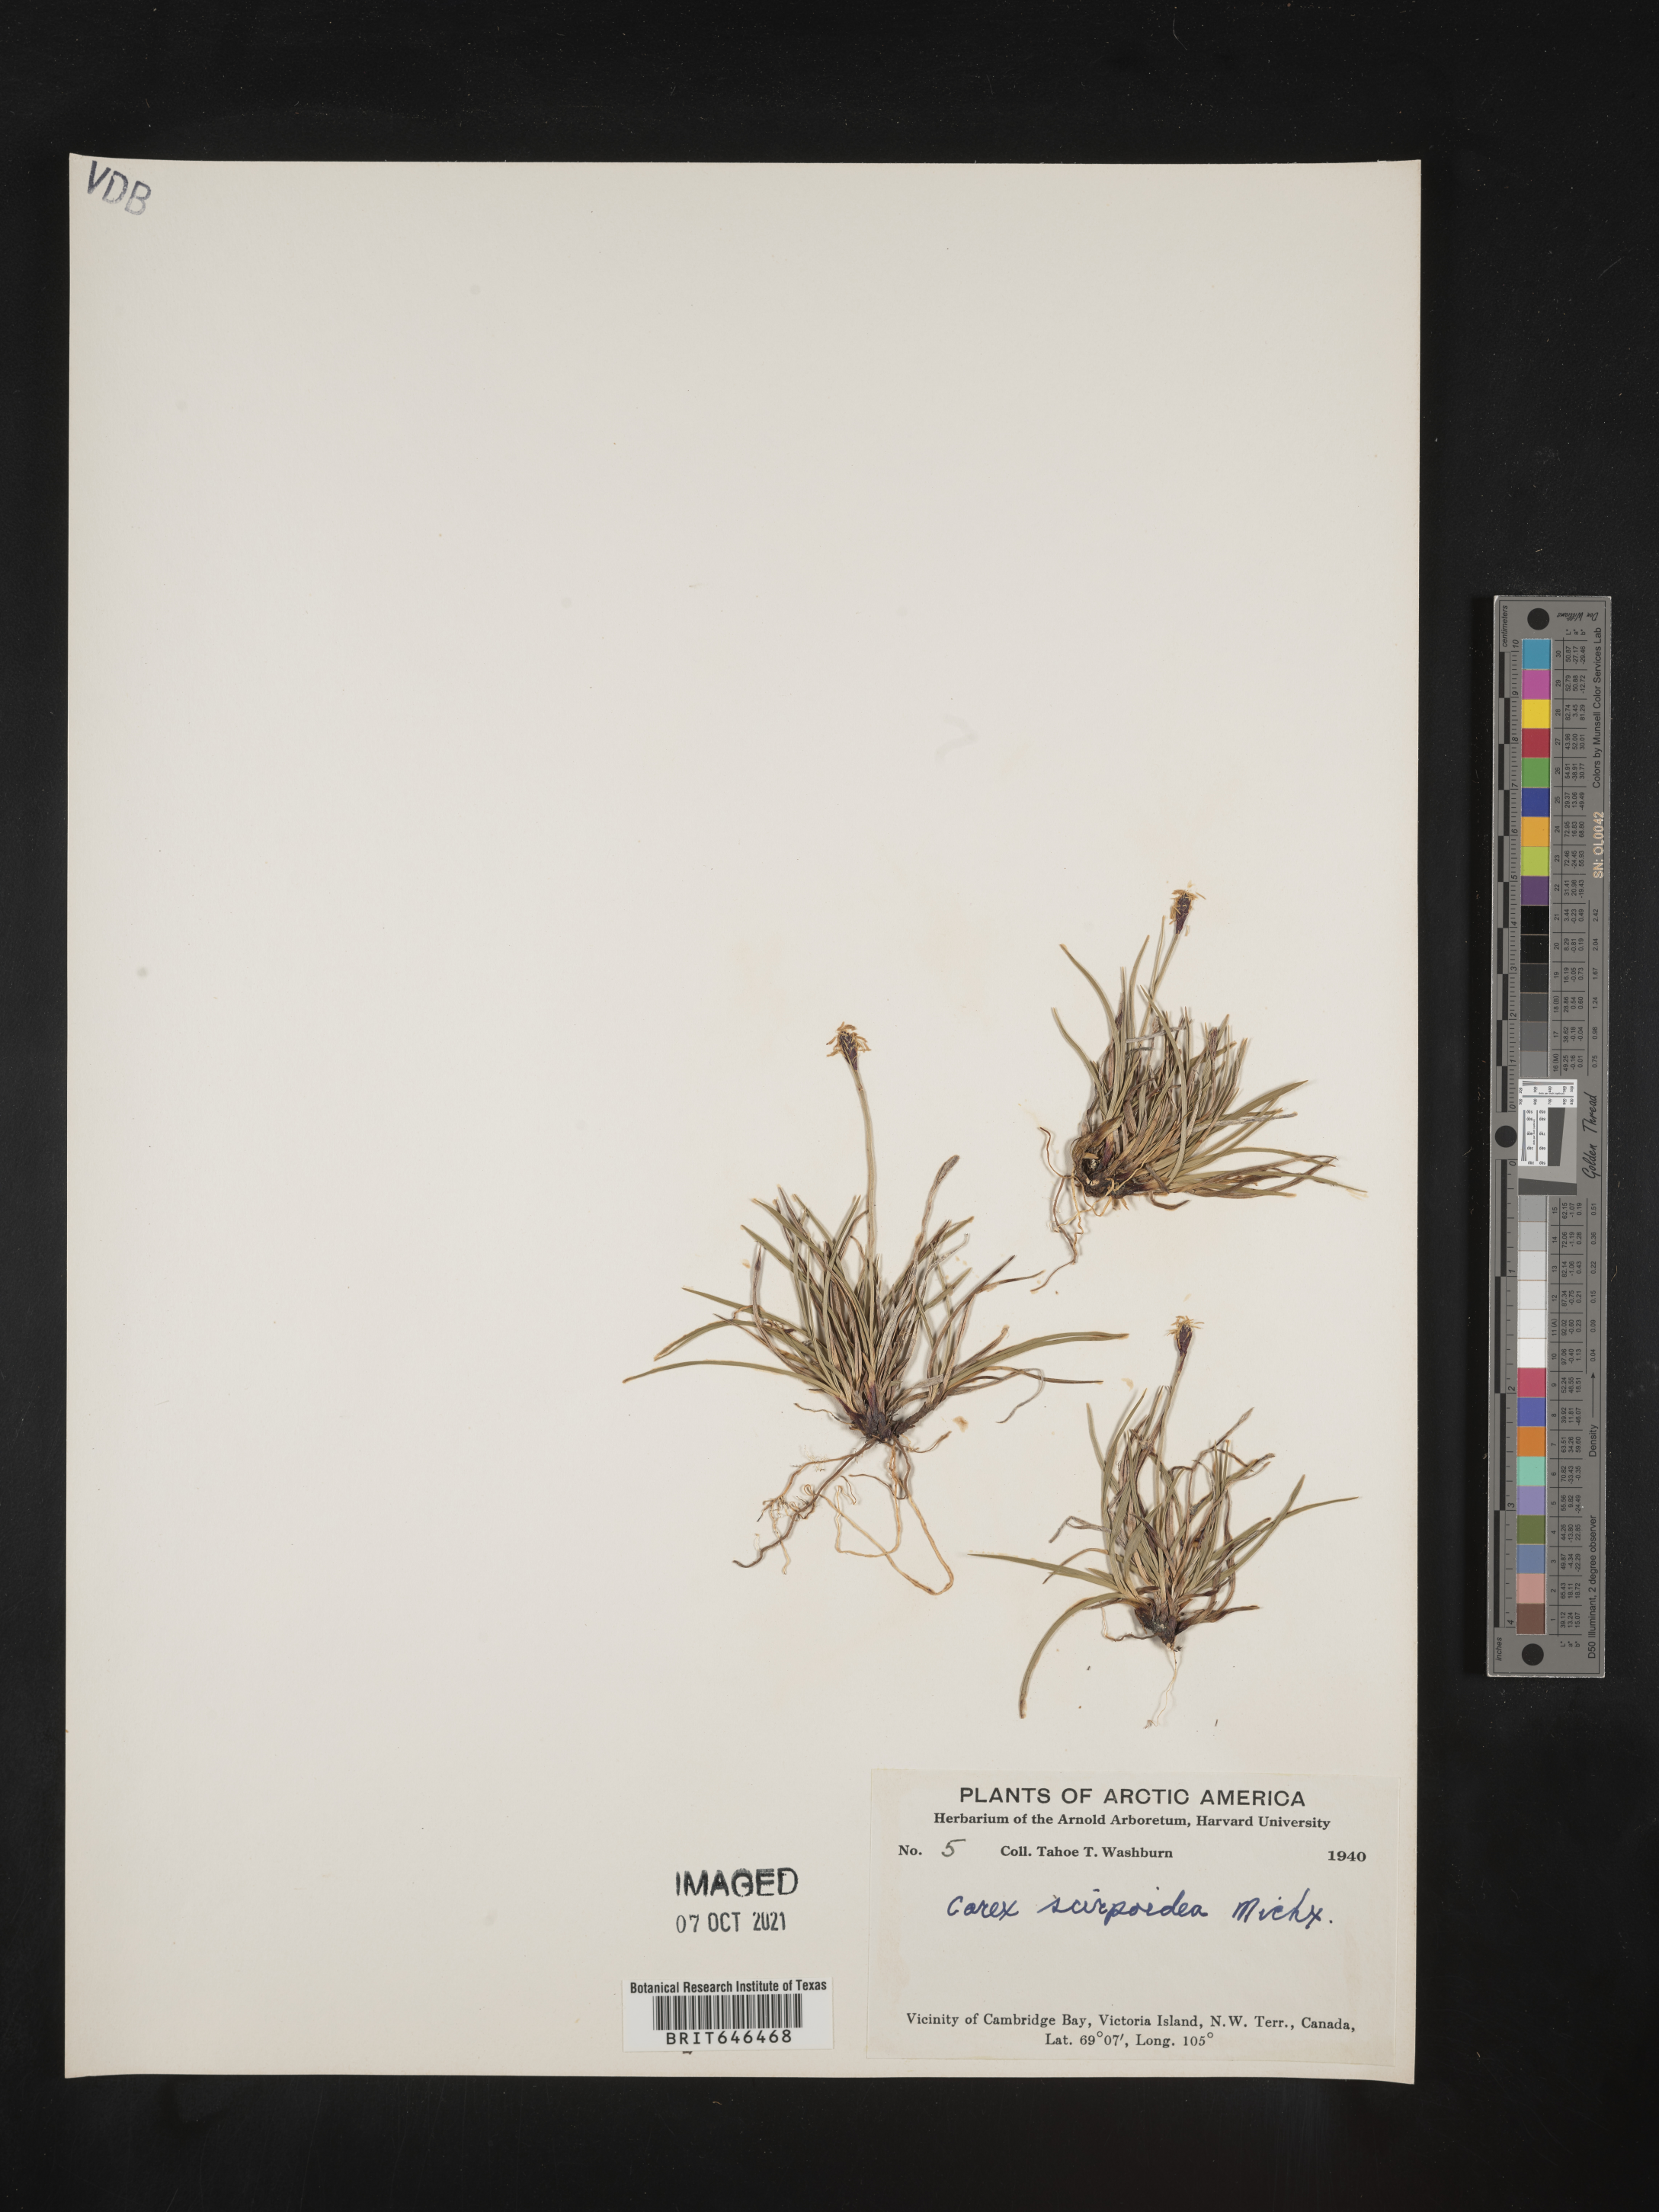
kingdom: Plantae
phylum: Tracheophyta
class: Liliopsida
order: Poales
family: Cyperaceae
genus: Carex
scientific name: Carex scirpoidea
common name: Canada single-spike sedge
